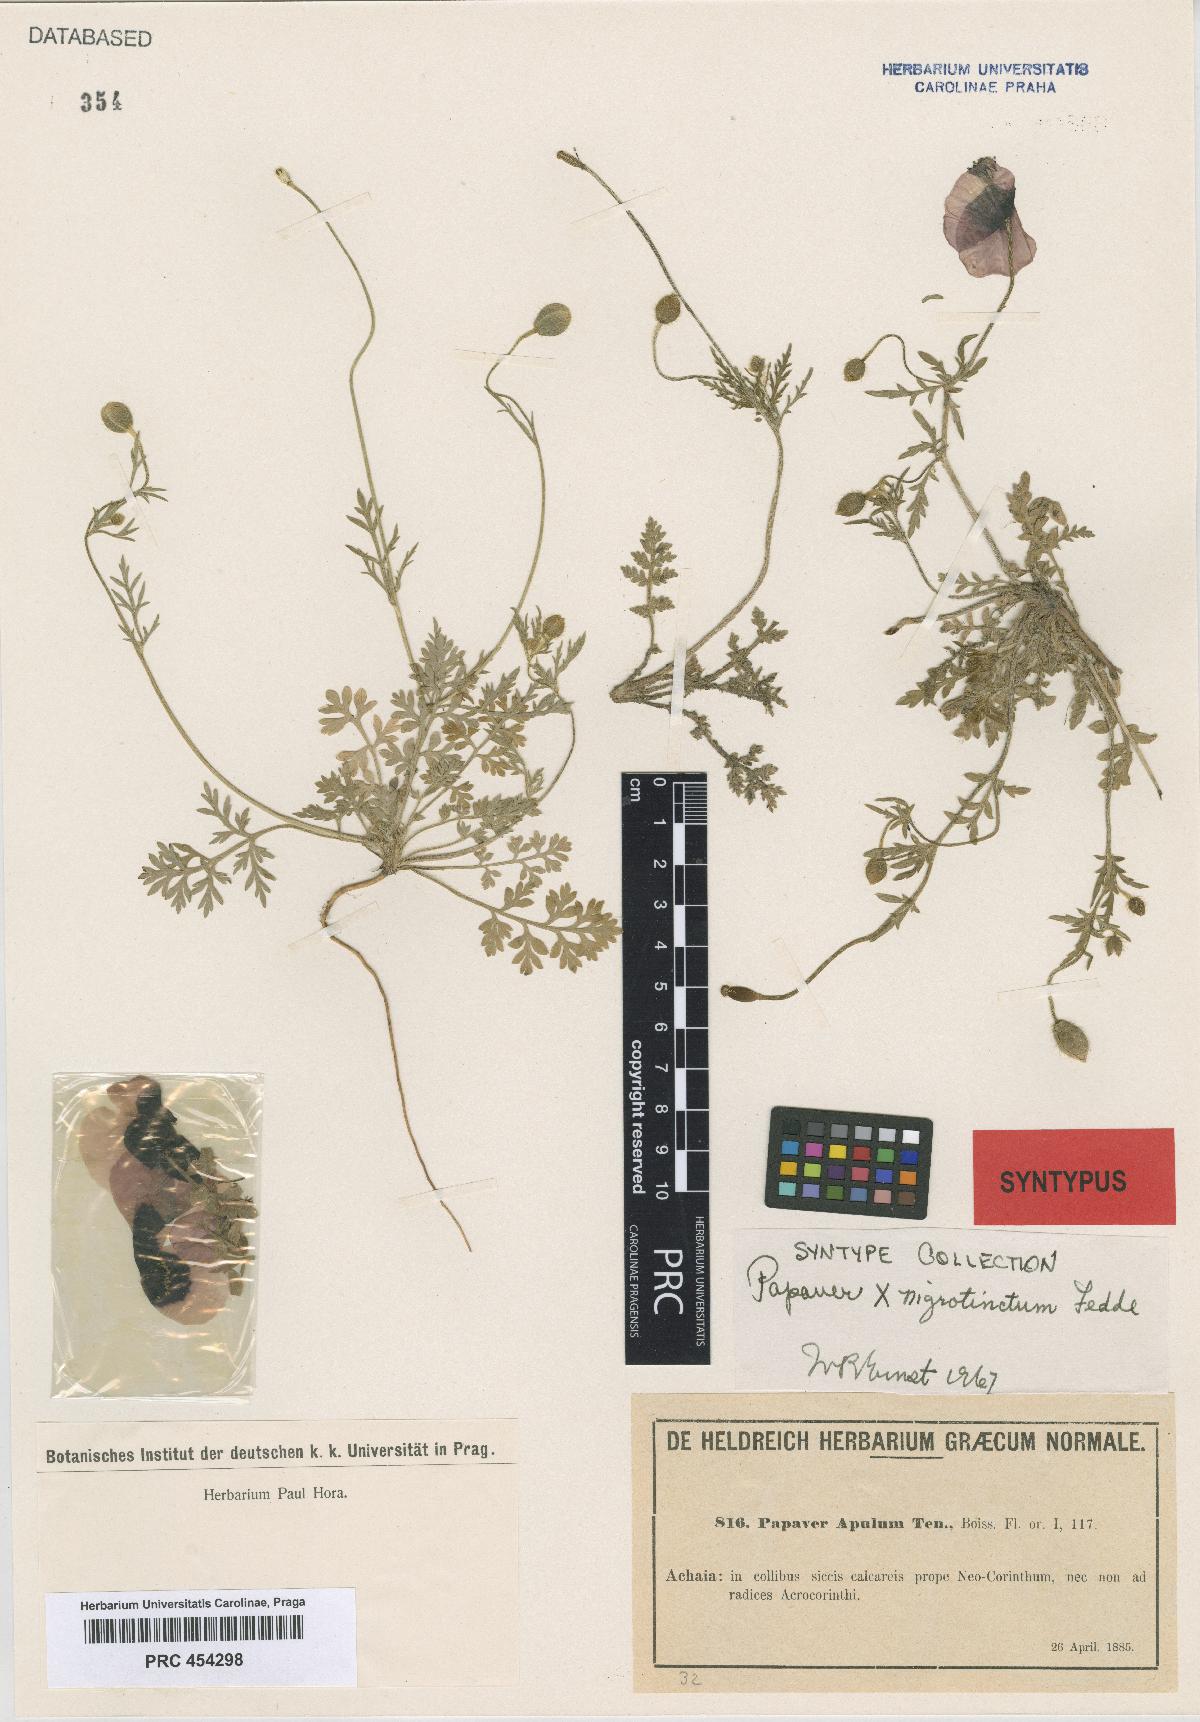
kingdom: Plantae
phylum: Tracheophyta
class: Magnoliopsida
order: Ranunculales
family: Papaveraceae
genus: Roemeria
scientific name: Roemeria apula
